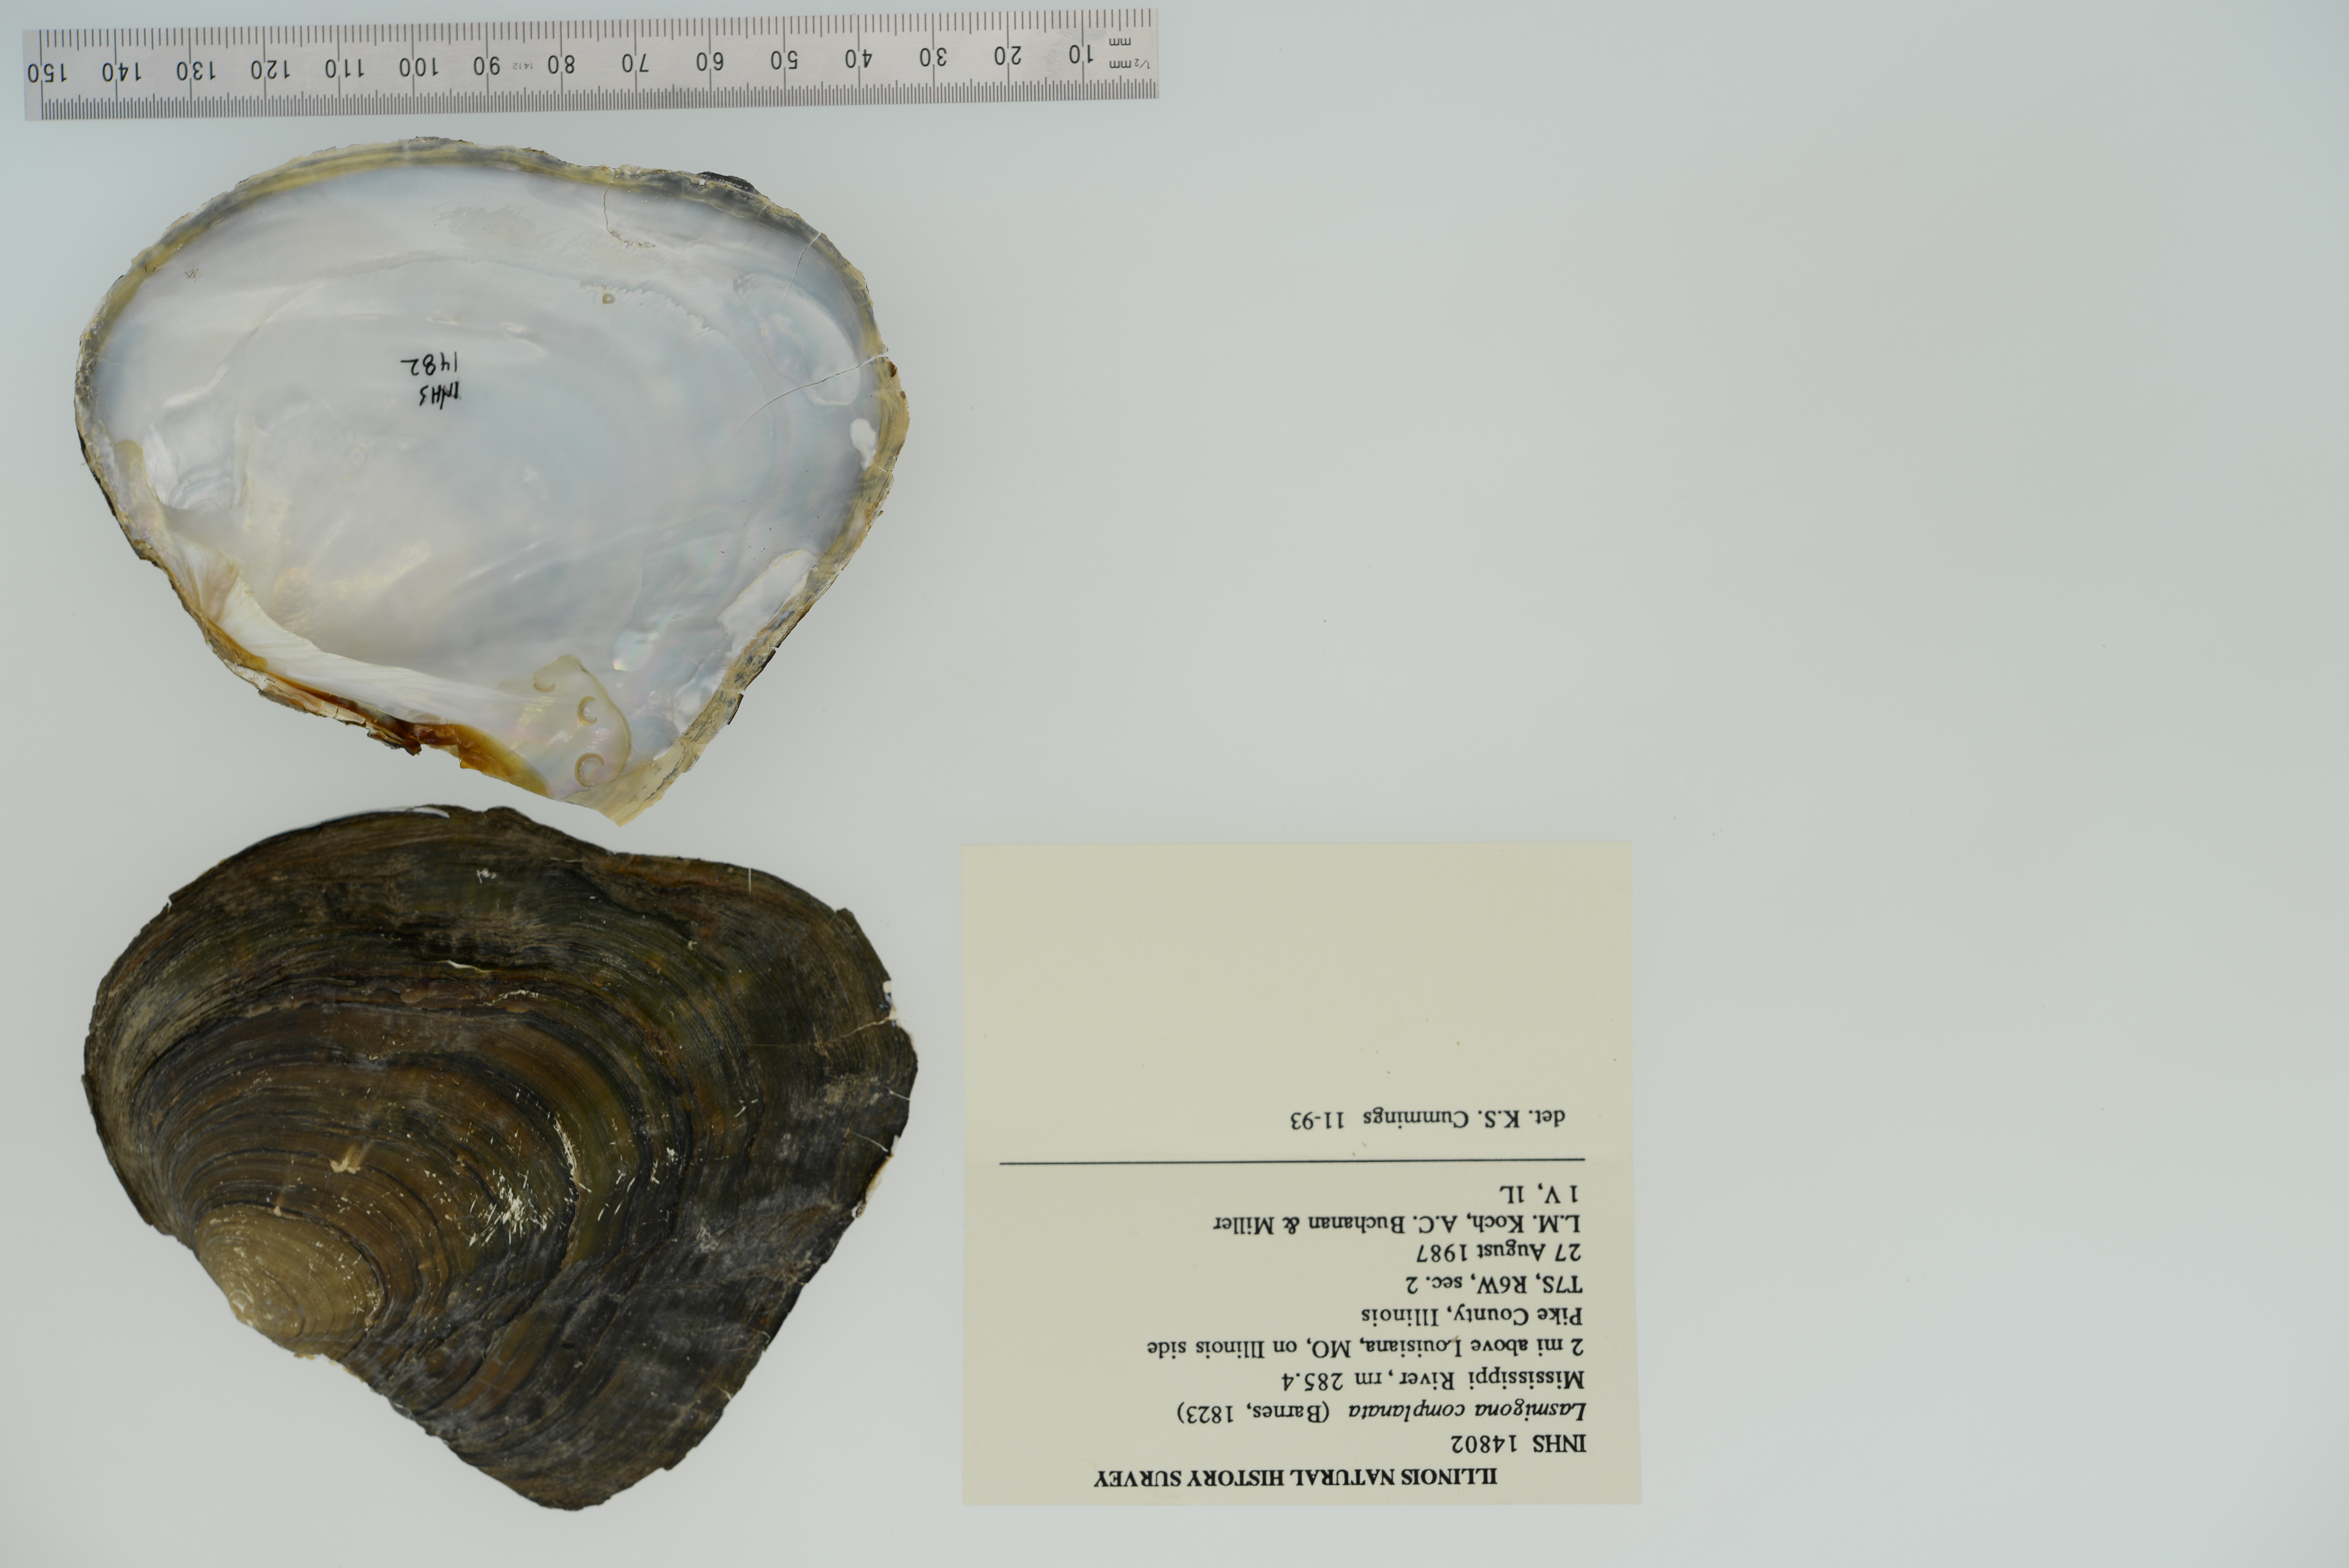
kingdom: Animalia
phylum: Mollusca
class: Bivalvia
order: Unionida
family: Unionidae
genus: Lasmigona
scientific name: Lasmigona complanata
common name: White heelsplitter
